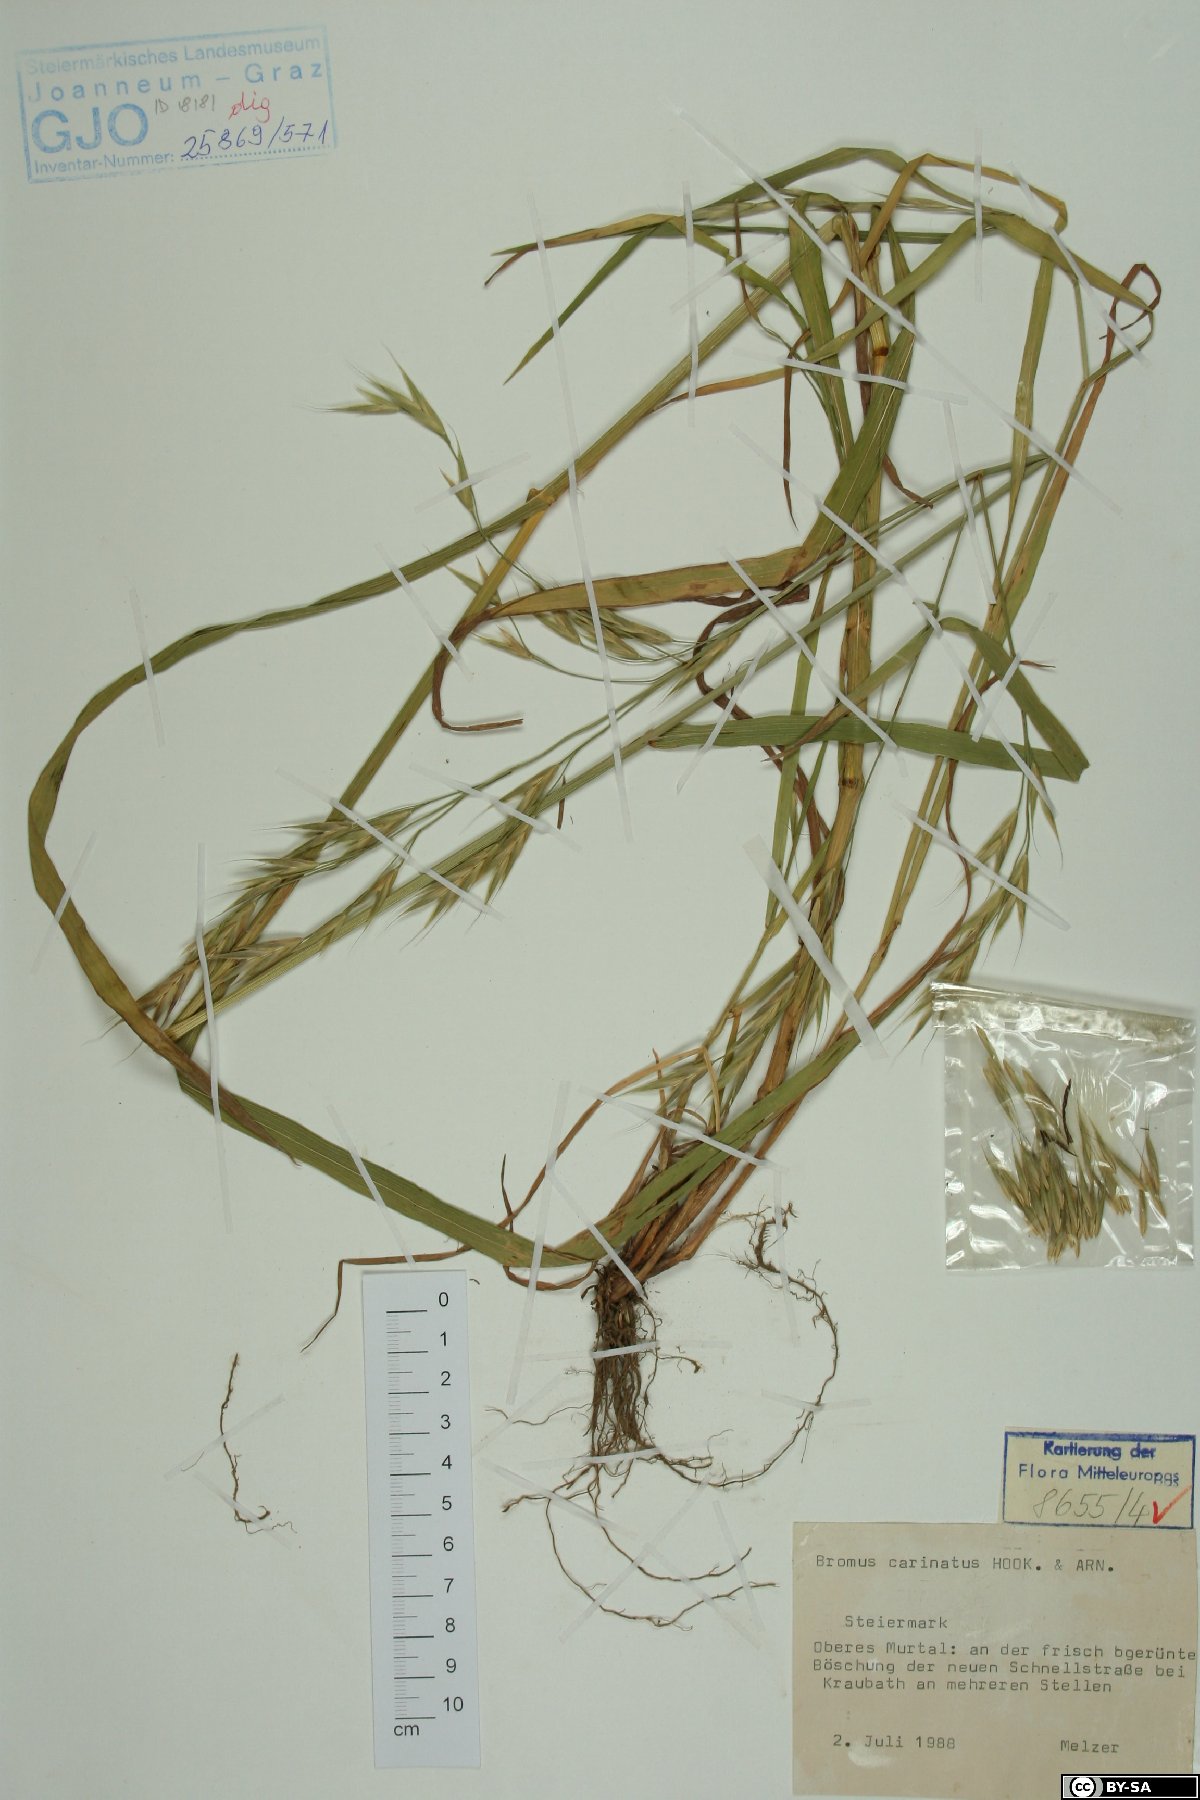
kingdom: Plantae
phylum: Tracheophyta
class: Liliopsida
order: Poales
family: Poaceae
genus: Bromus
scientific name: Bromus carinatus
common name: Mountain brome
